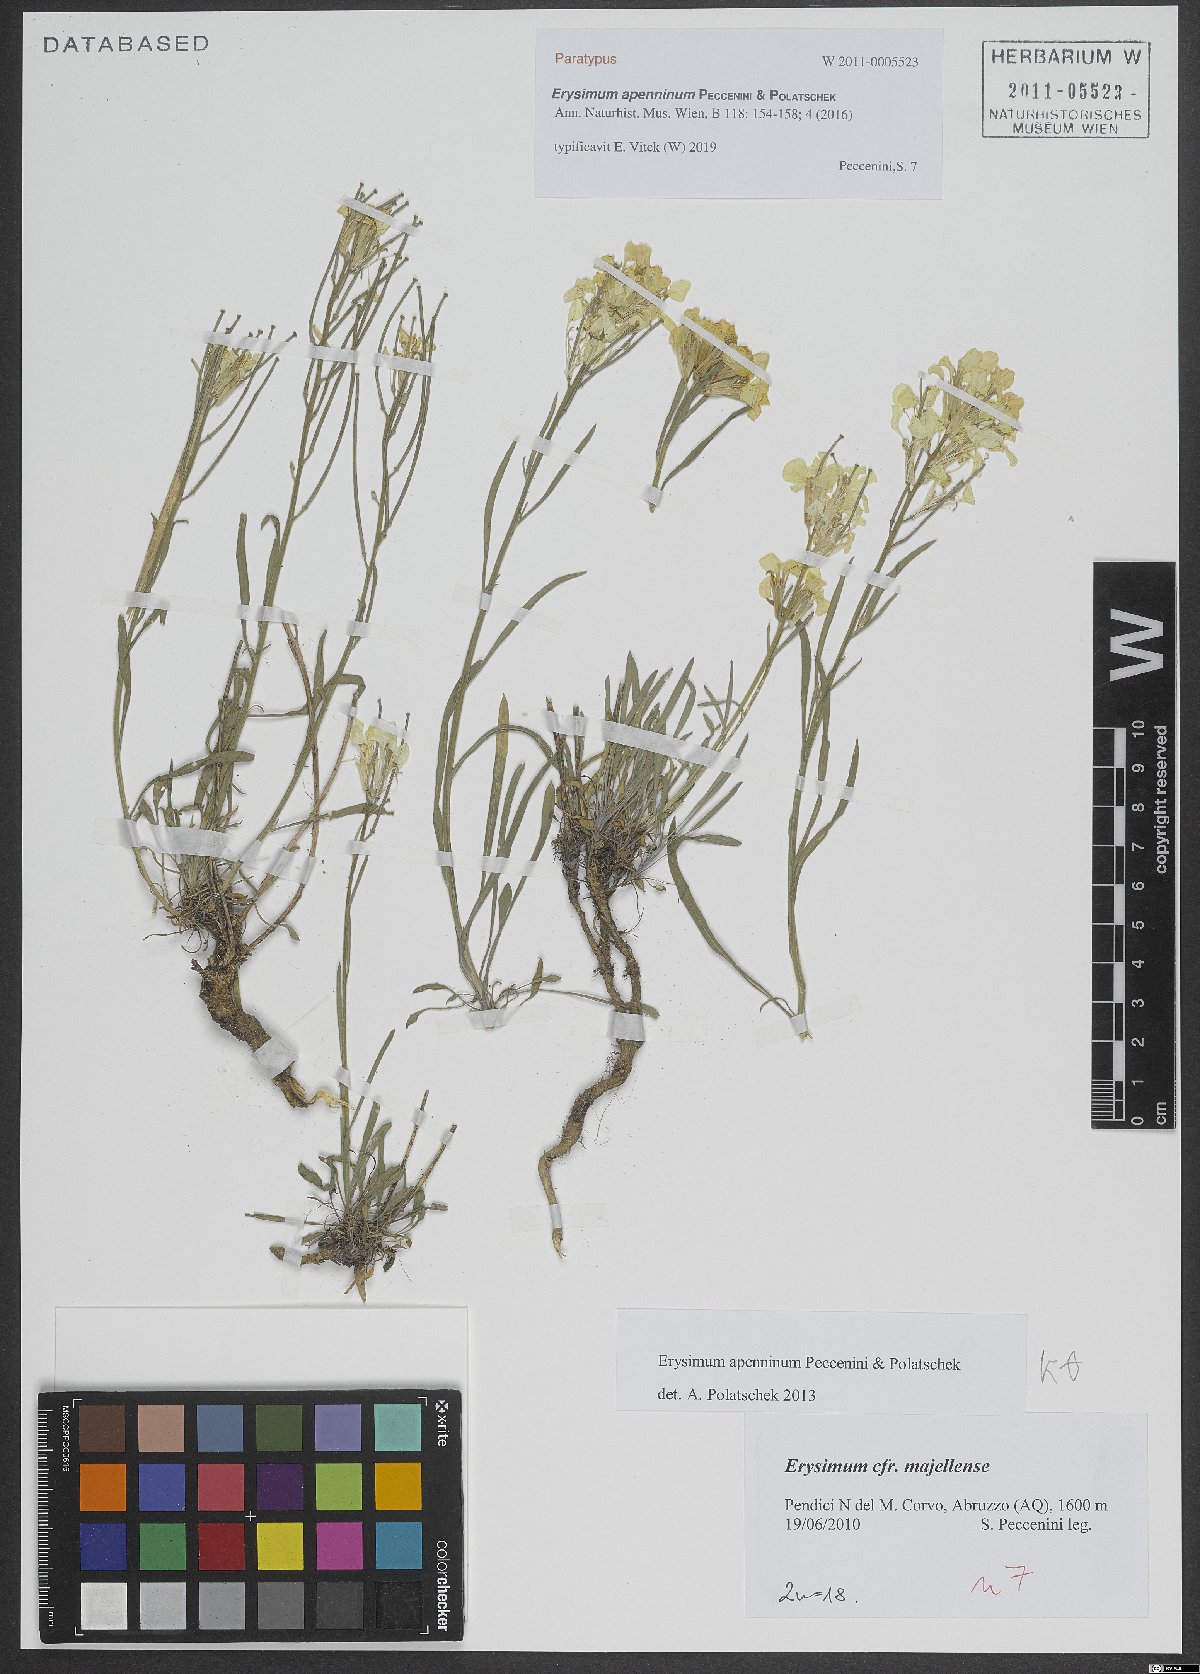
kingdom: Plantae
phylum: Tracheophyta
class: Magnoliopsida
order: Brassicales
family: Brassicaceae
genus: Erysimum
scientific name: Erysimum apenninum
